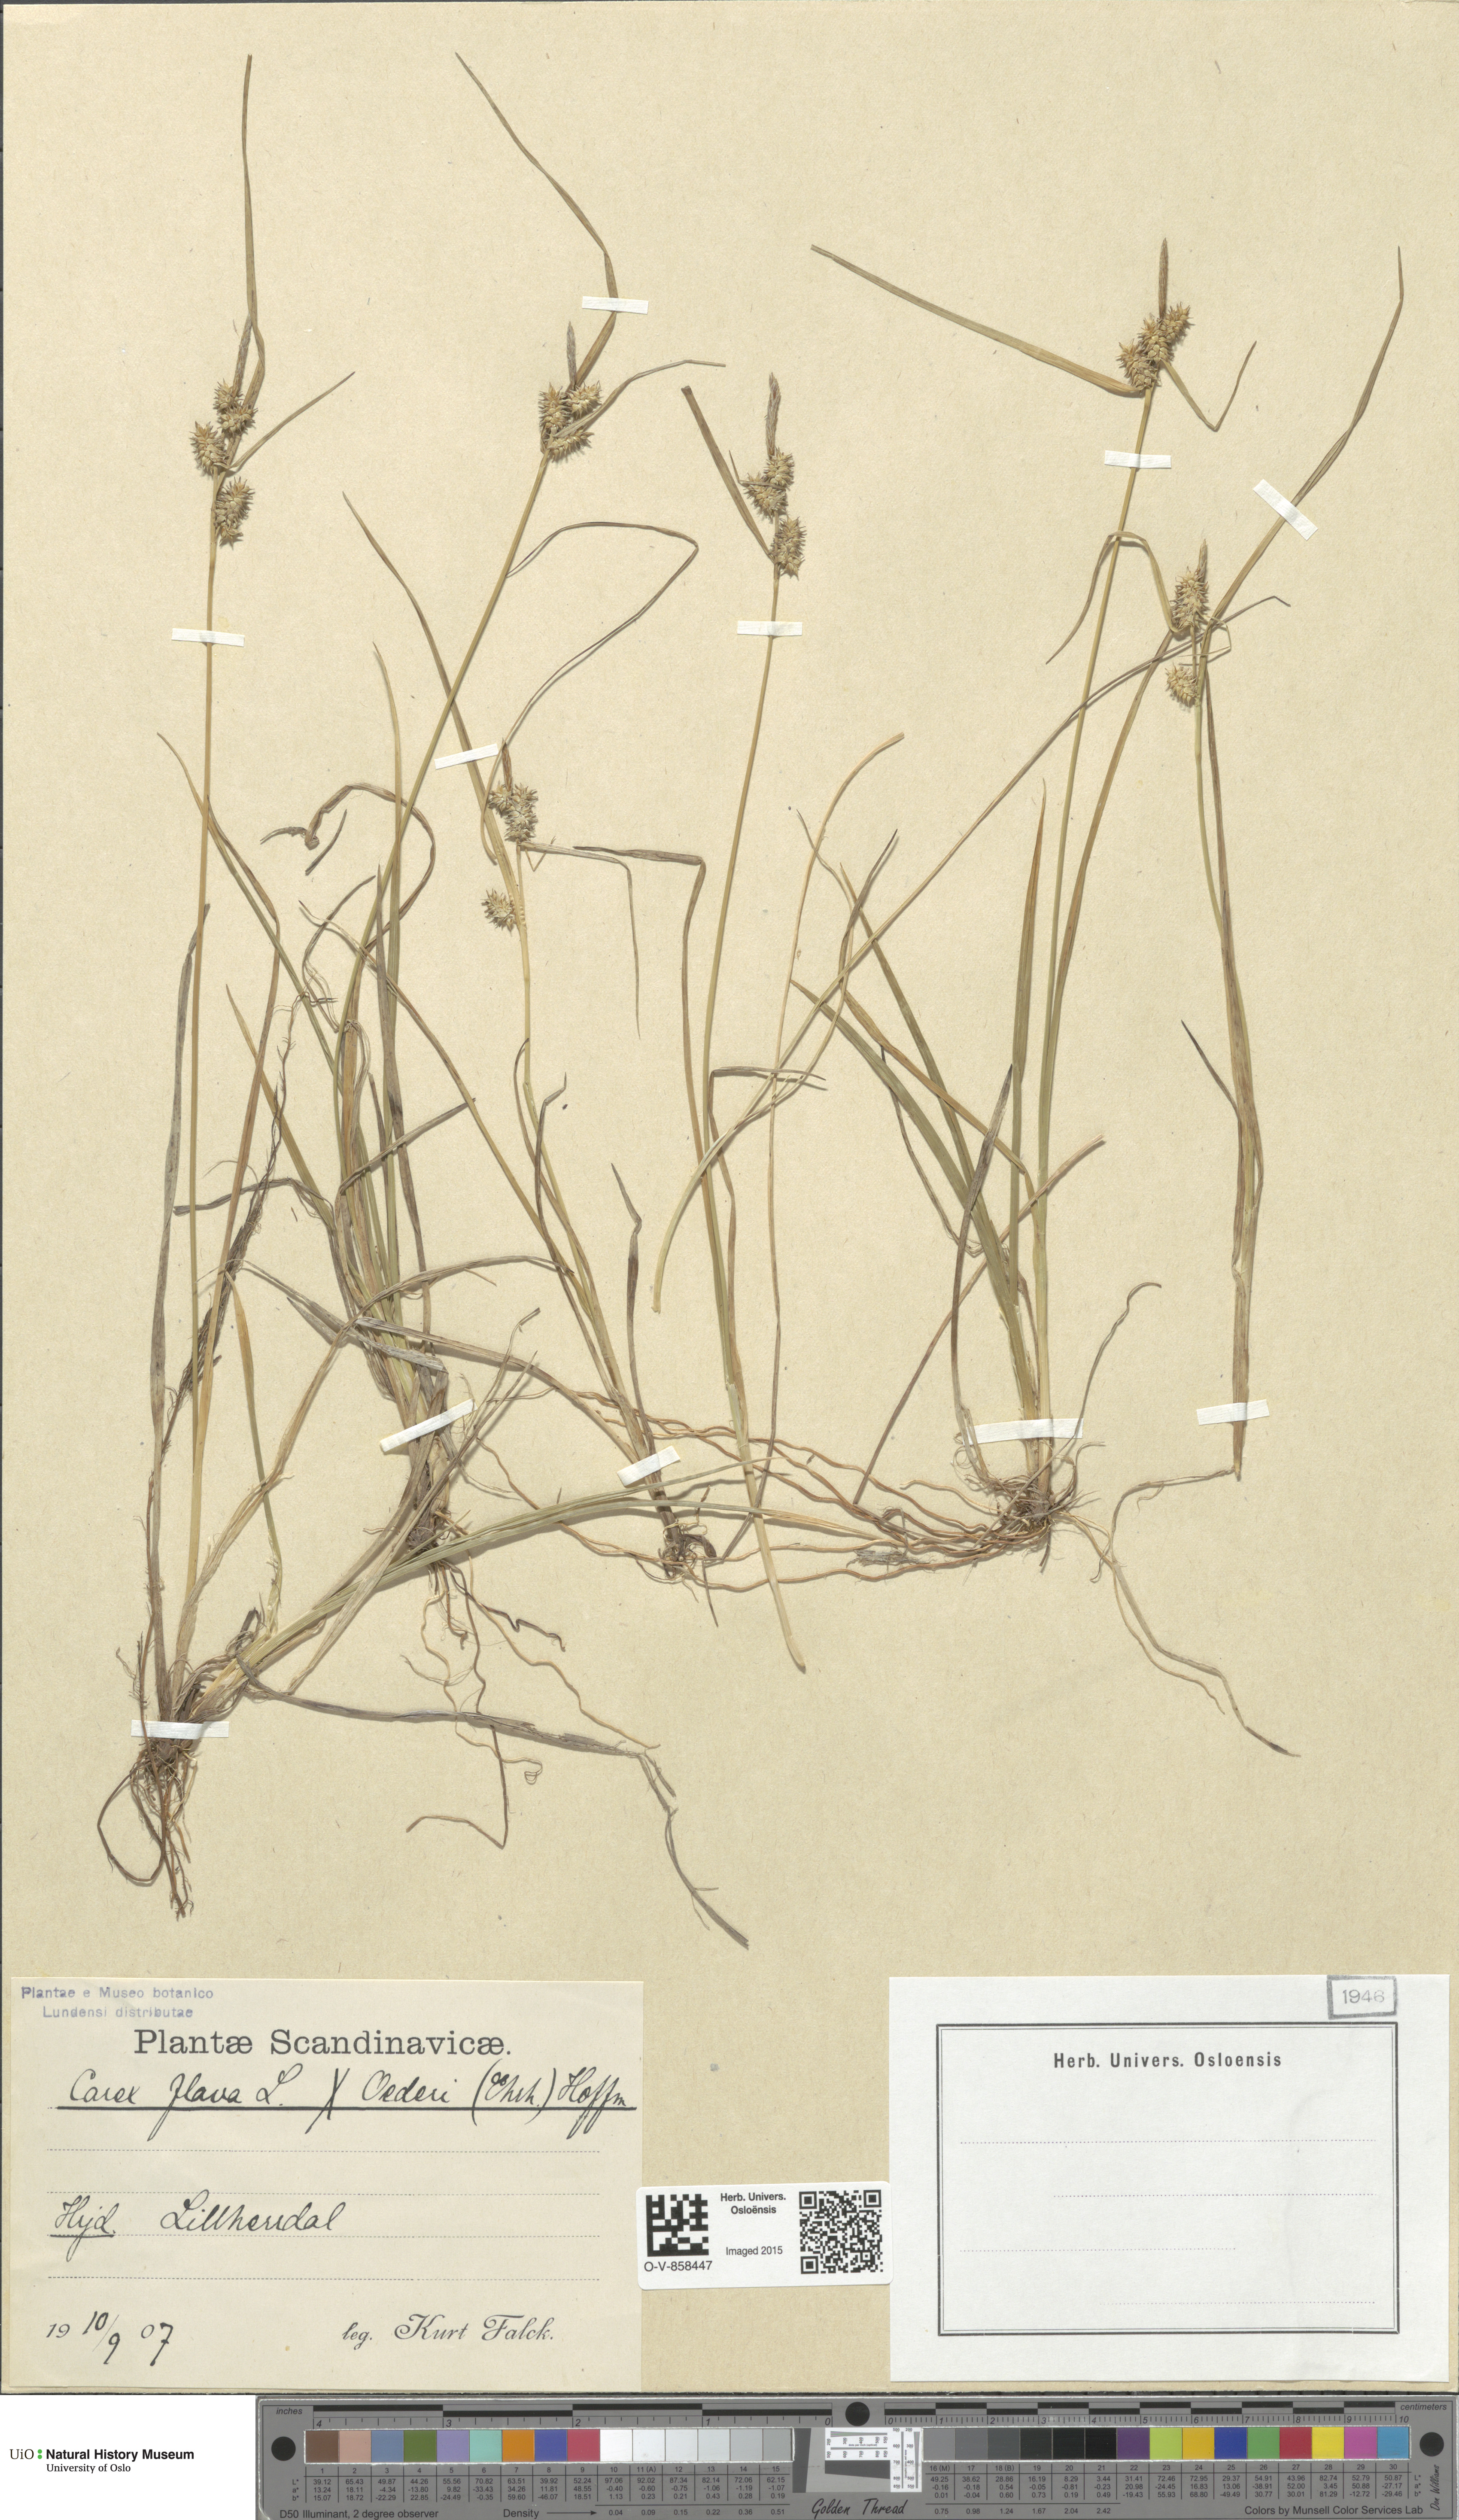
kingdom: Plantae
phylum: Tracheophyta
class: Liliopsida
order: Poales
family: Cyperaceae
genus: Carex
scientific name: Carex
